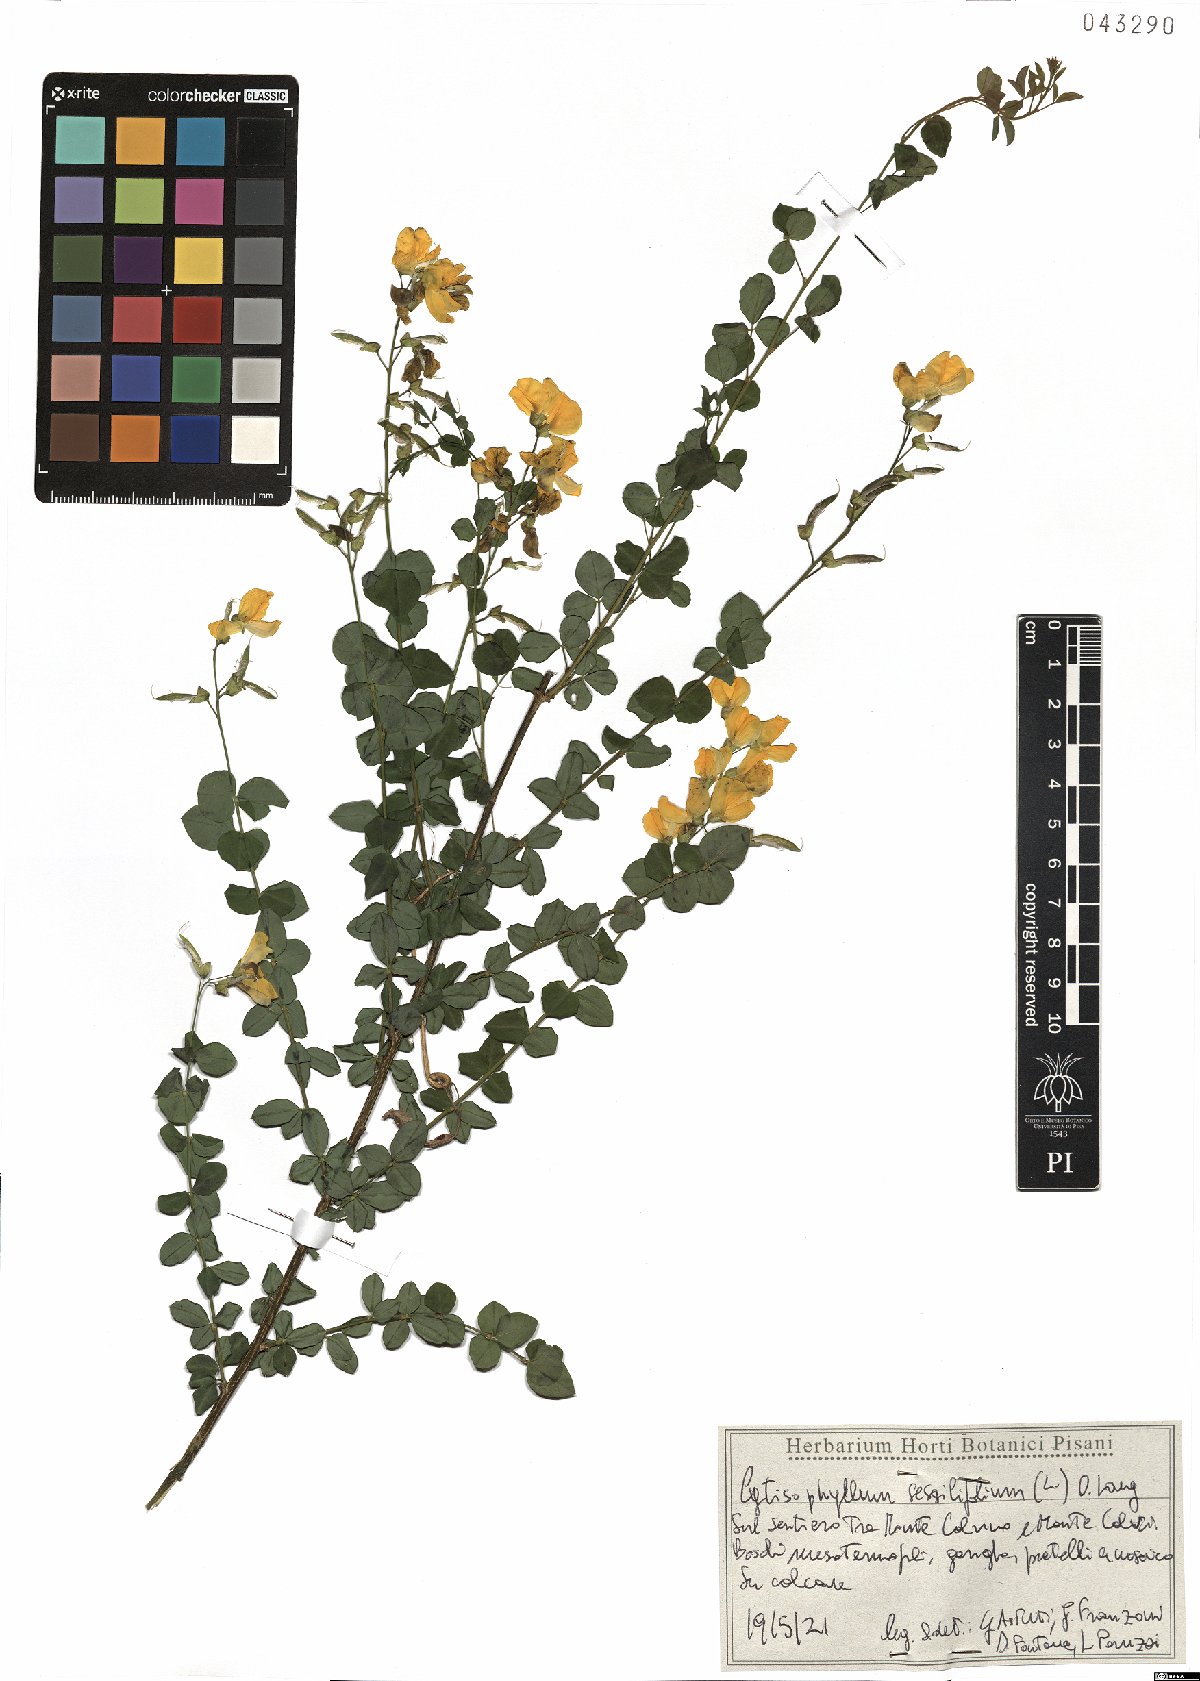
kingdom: Plantae
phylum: Tracheophyta
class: Magnoliopsida
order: Fabales
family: Fabaceae
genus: Cytisophyllum
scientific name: Cytisophyllum sessilifolium
